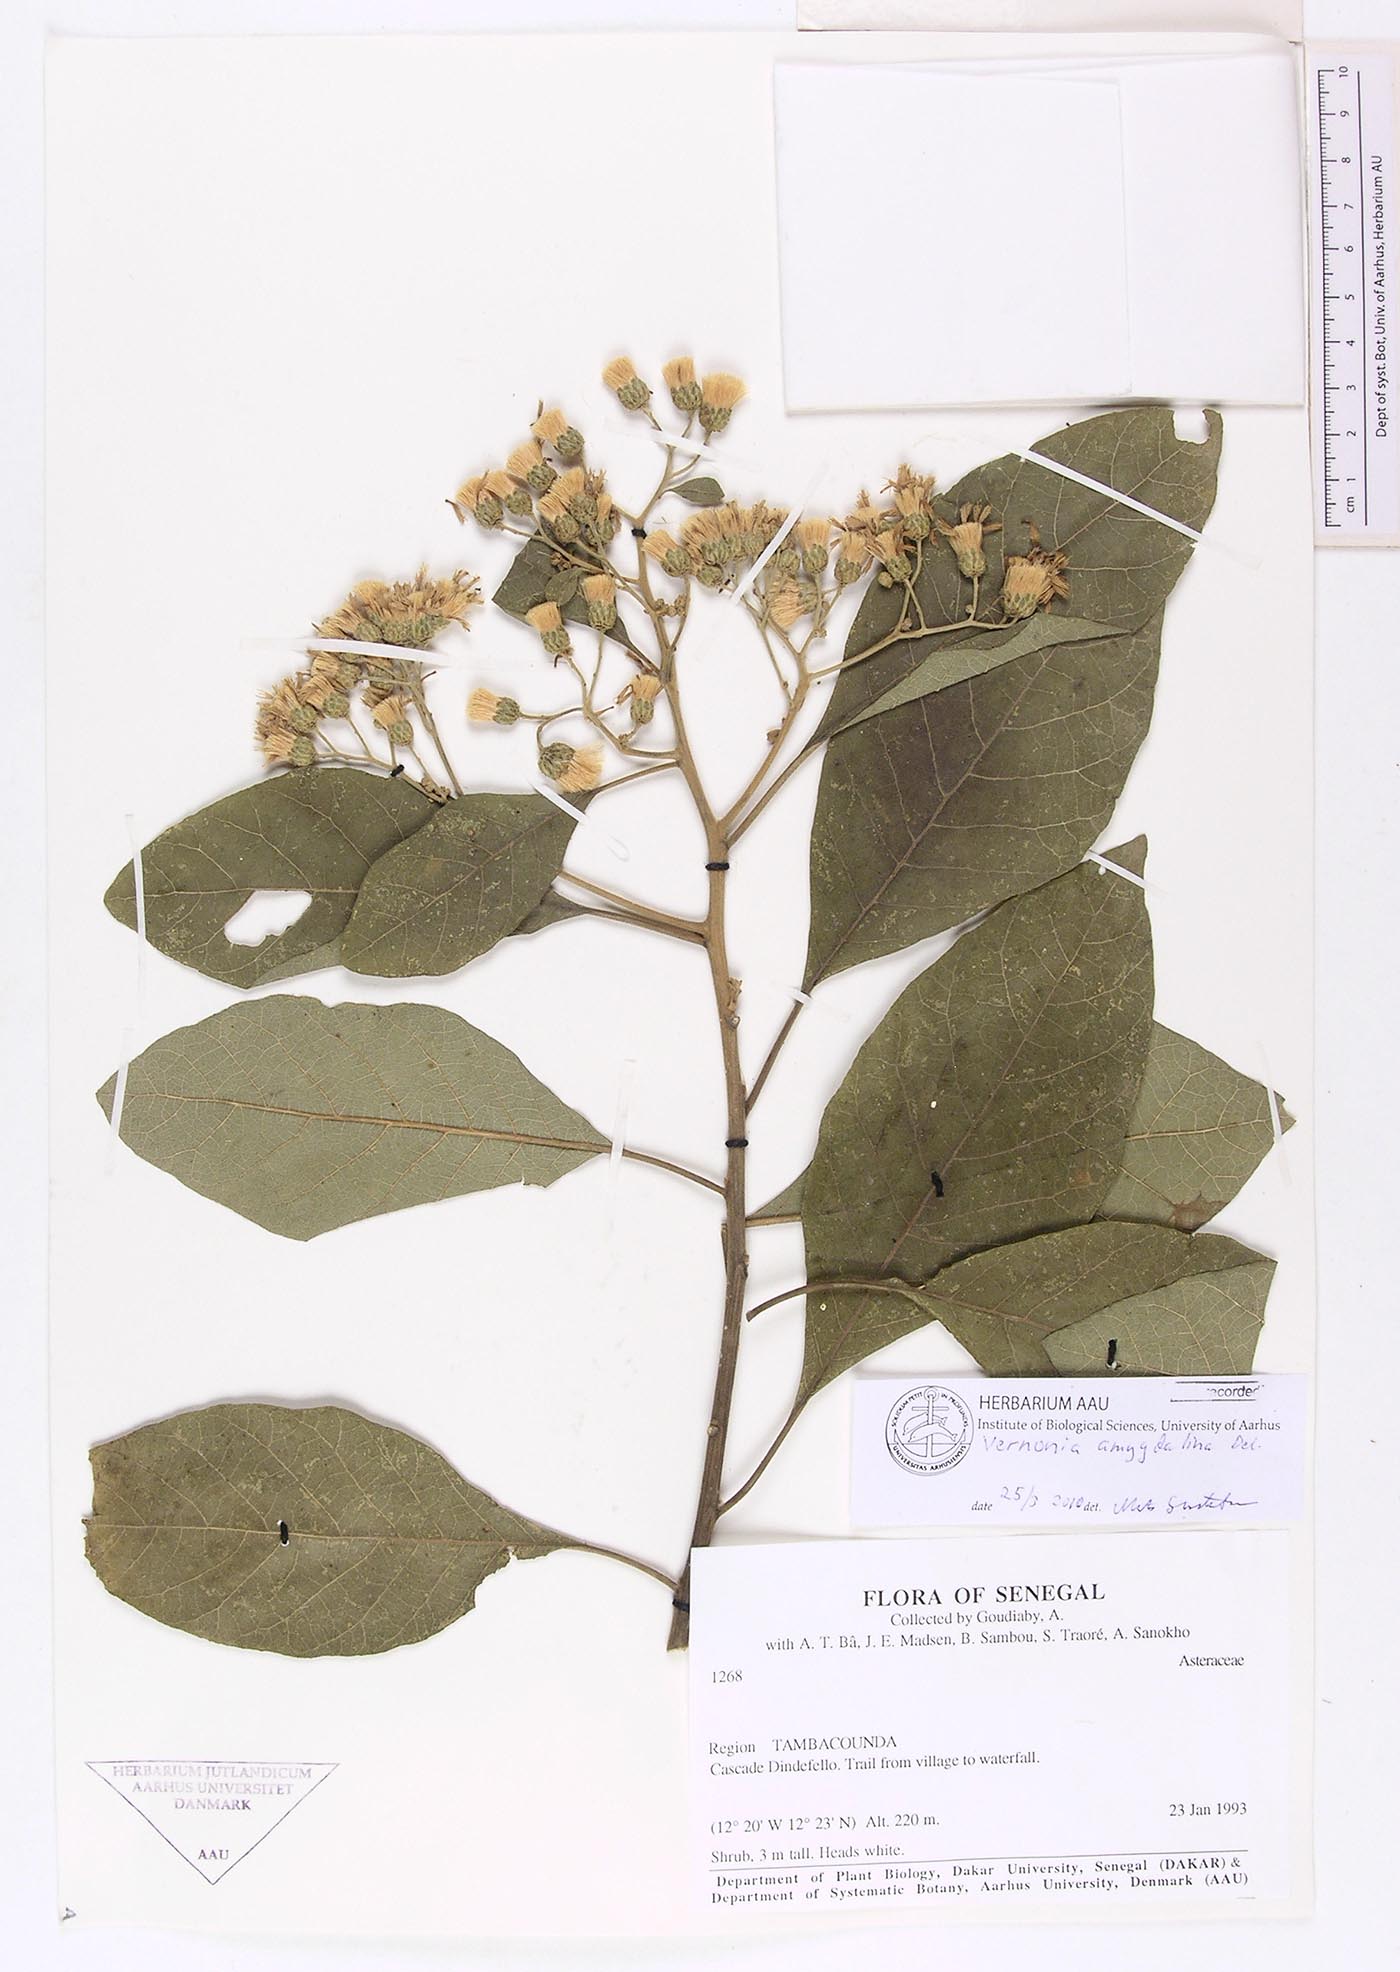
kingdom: Plantae
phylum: Tracheophyta
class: Magnoliopsida
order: Asterales
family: Asteraceae
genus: Gymnanthemum
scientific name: Gymnanthemum amygdalinum
